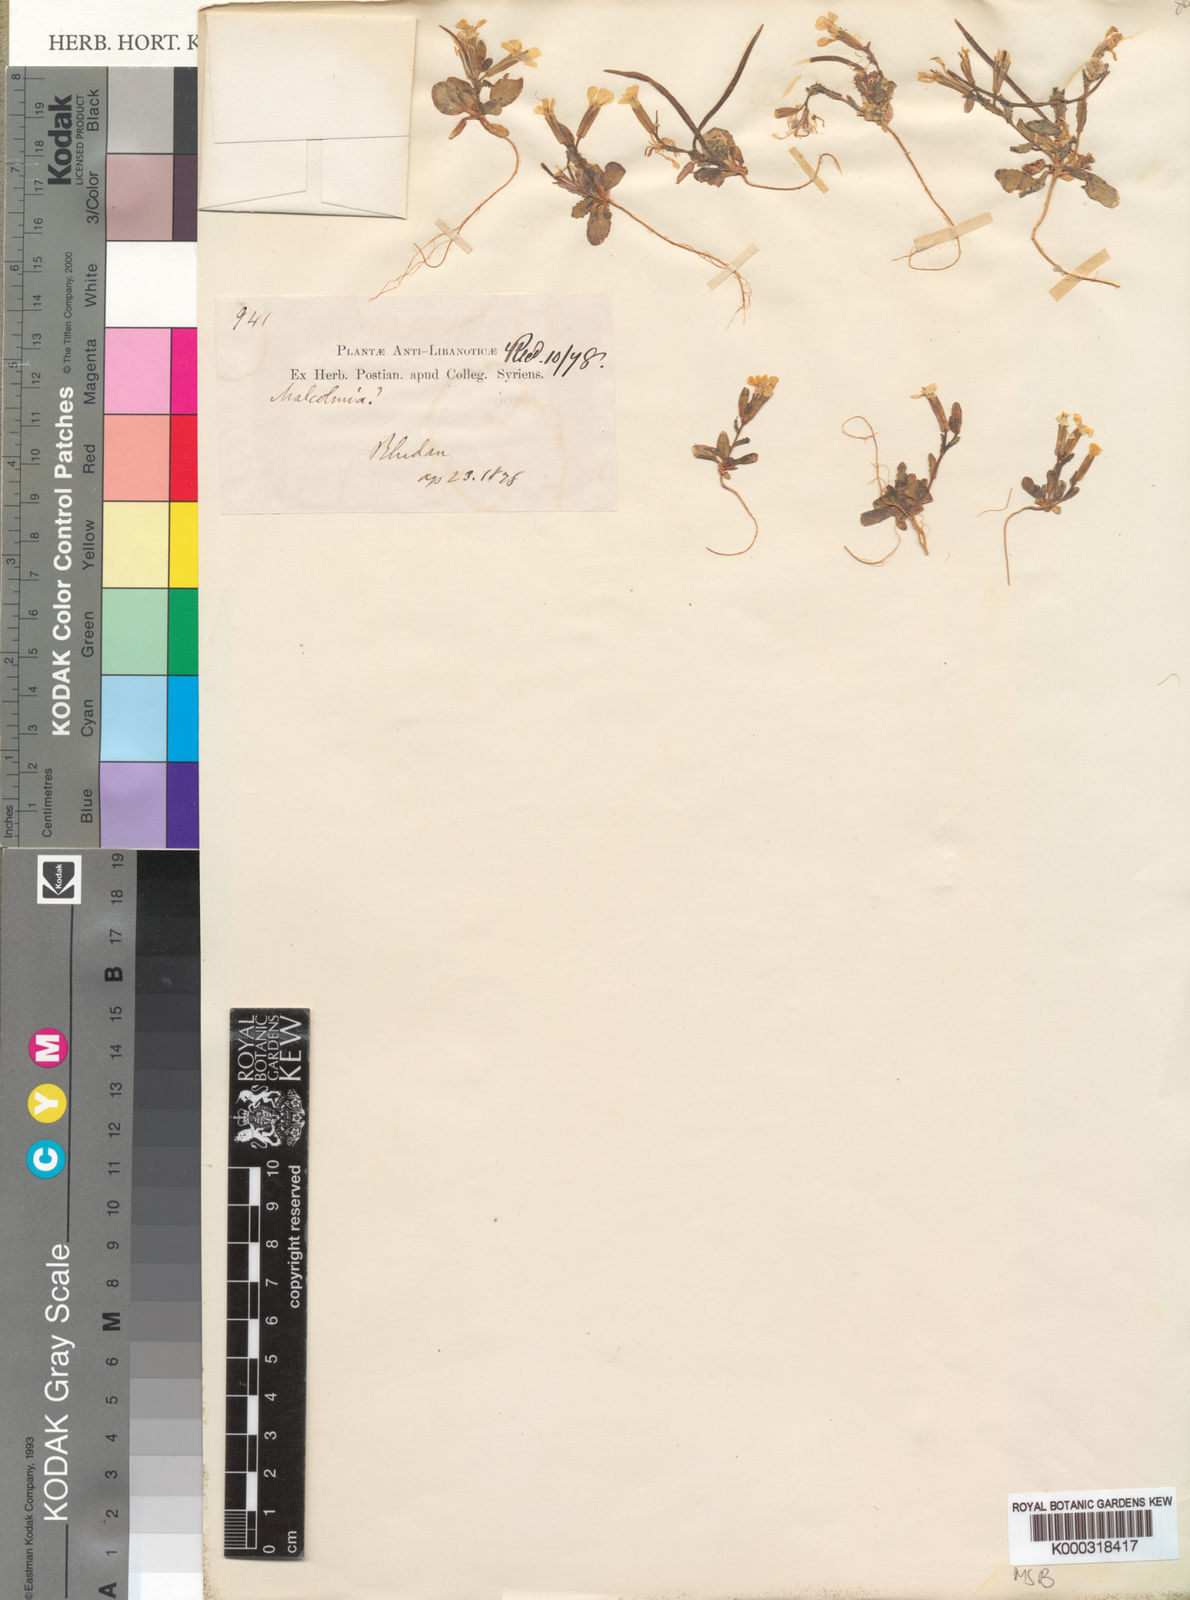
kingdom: Plantae
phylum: Tracheophyta
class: Magnoliopsida
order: Brassicales
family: Brassicaceae
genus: Zuvanda
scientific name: Zuvanda exacoides
